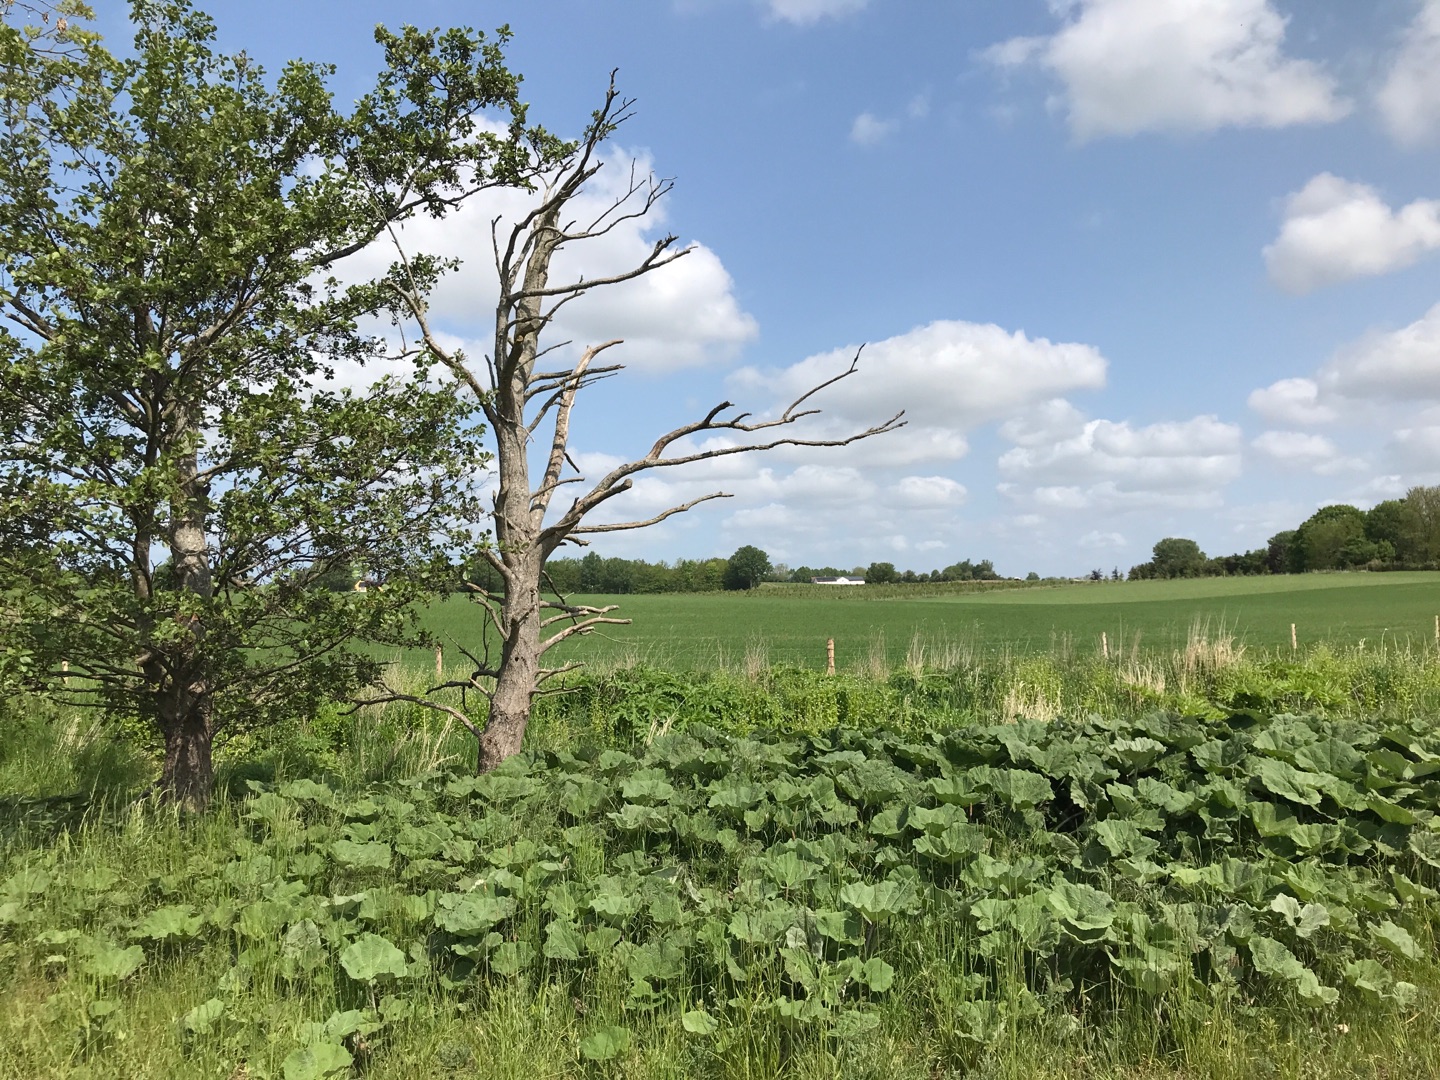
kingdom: Animalia
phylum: Chordata
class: Mammalia
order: Lagomorpha
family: Leporidae
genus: Lepus
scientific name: Lepus europaeus
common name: Hare
